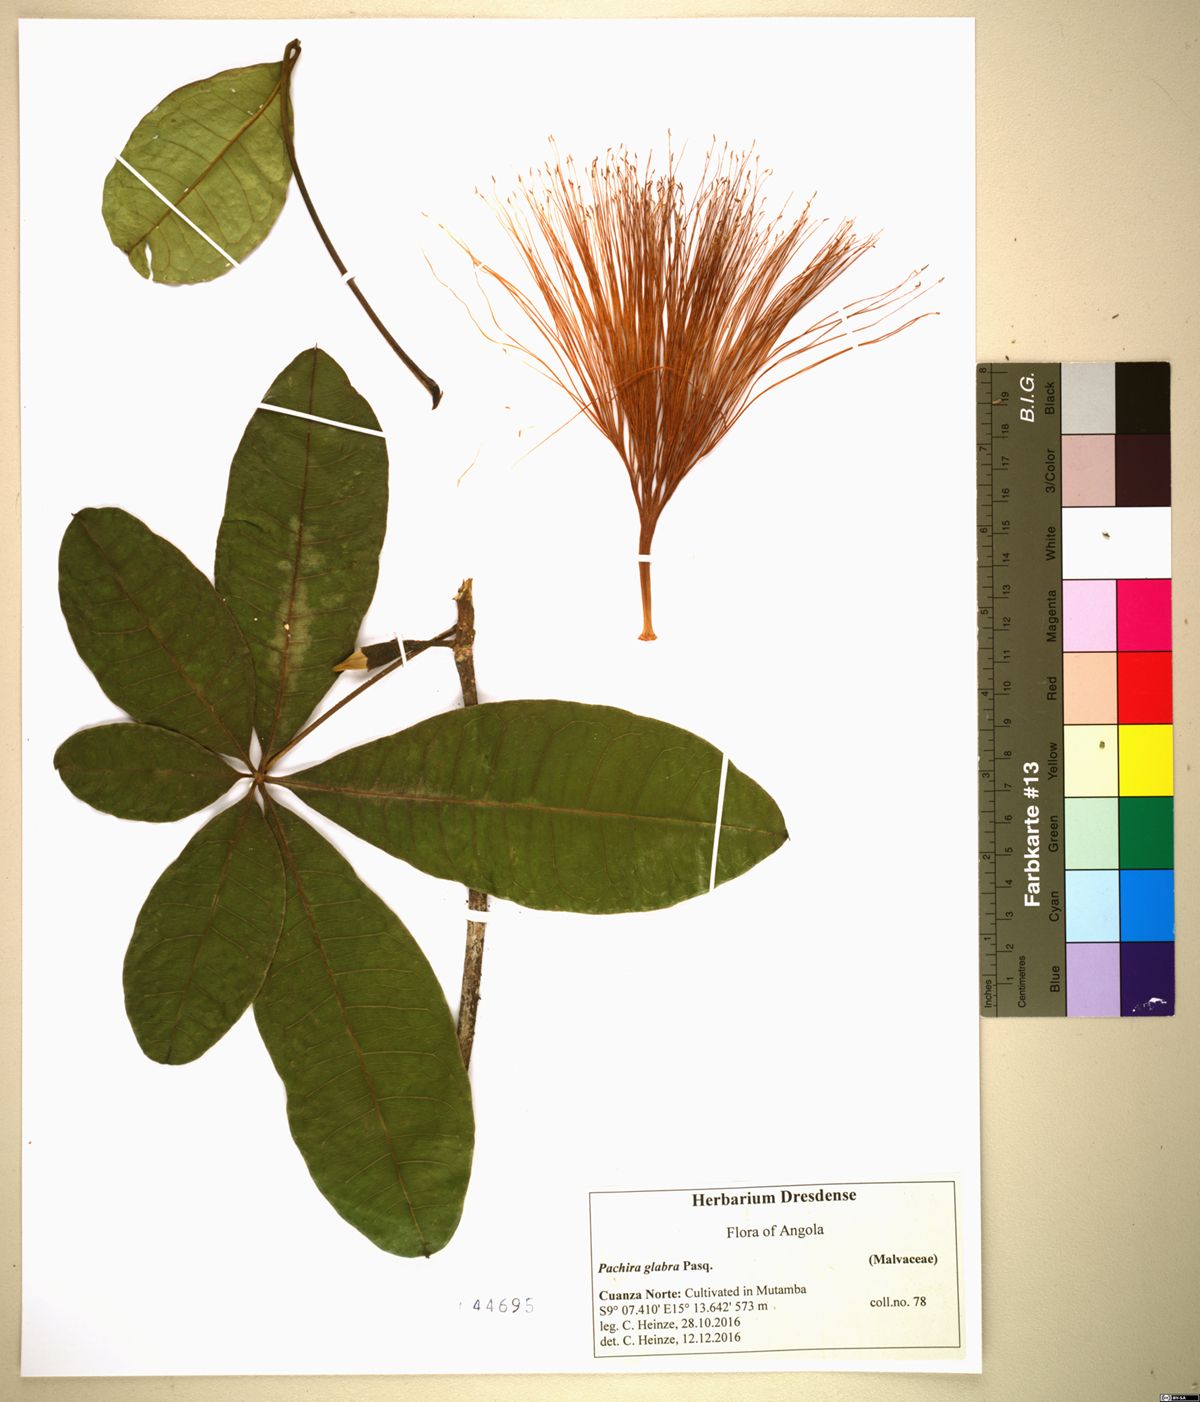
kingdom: Plantae
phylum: Tracheophyta
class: Magnoliopsida
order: Malvales
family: Malvaceae
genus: Pachira
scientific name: Pachira glabra
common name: Moneytree
